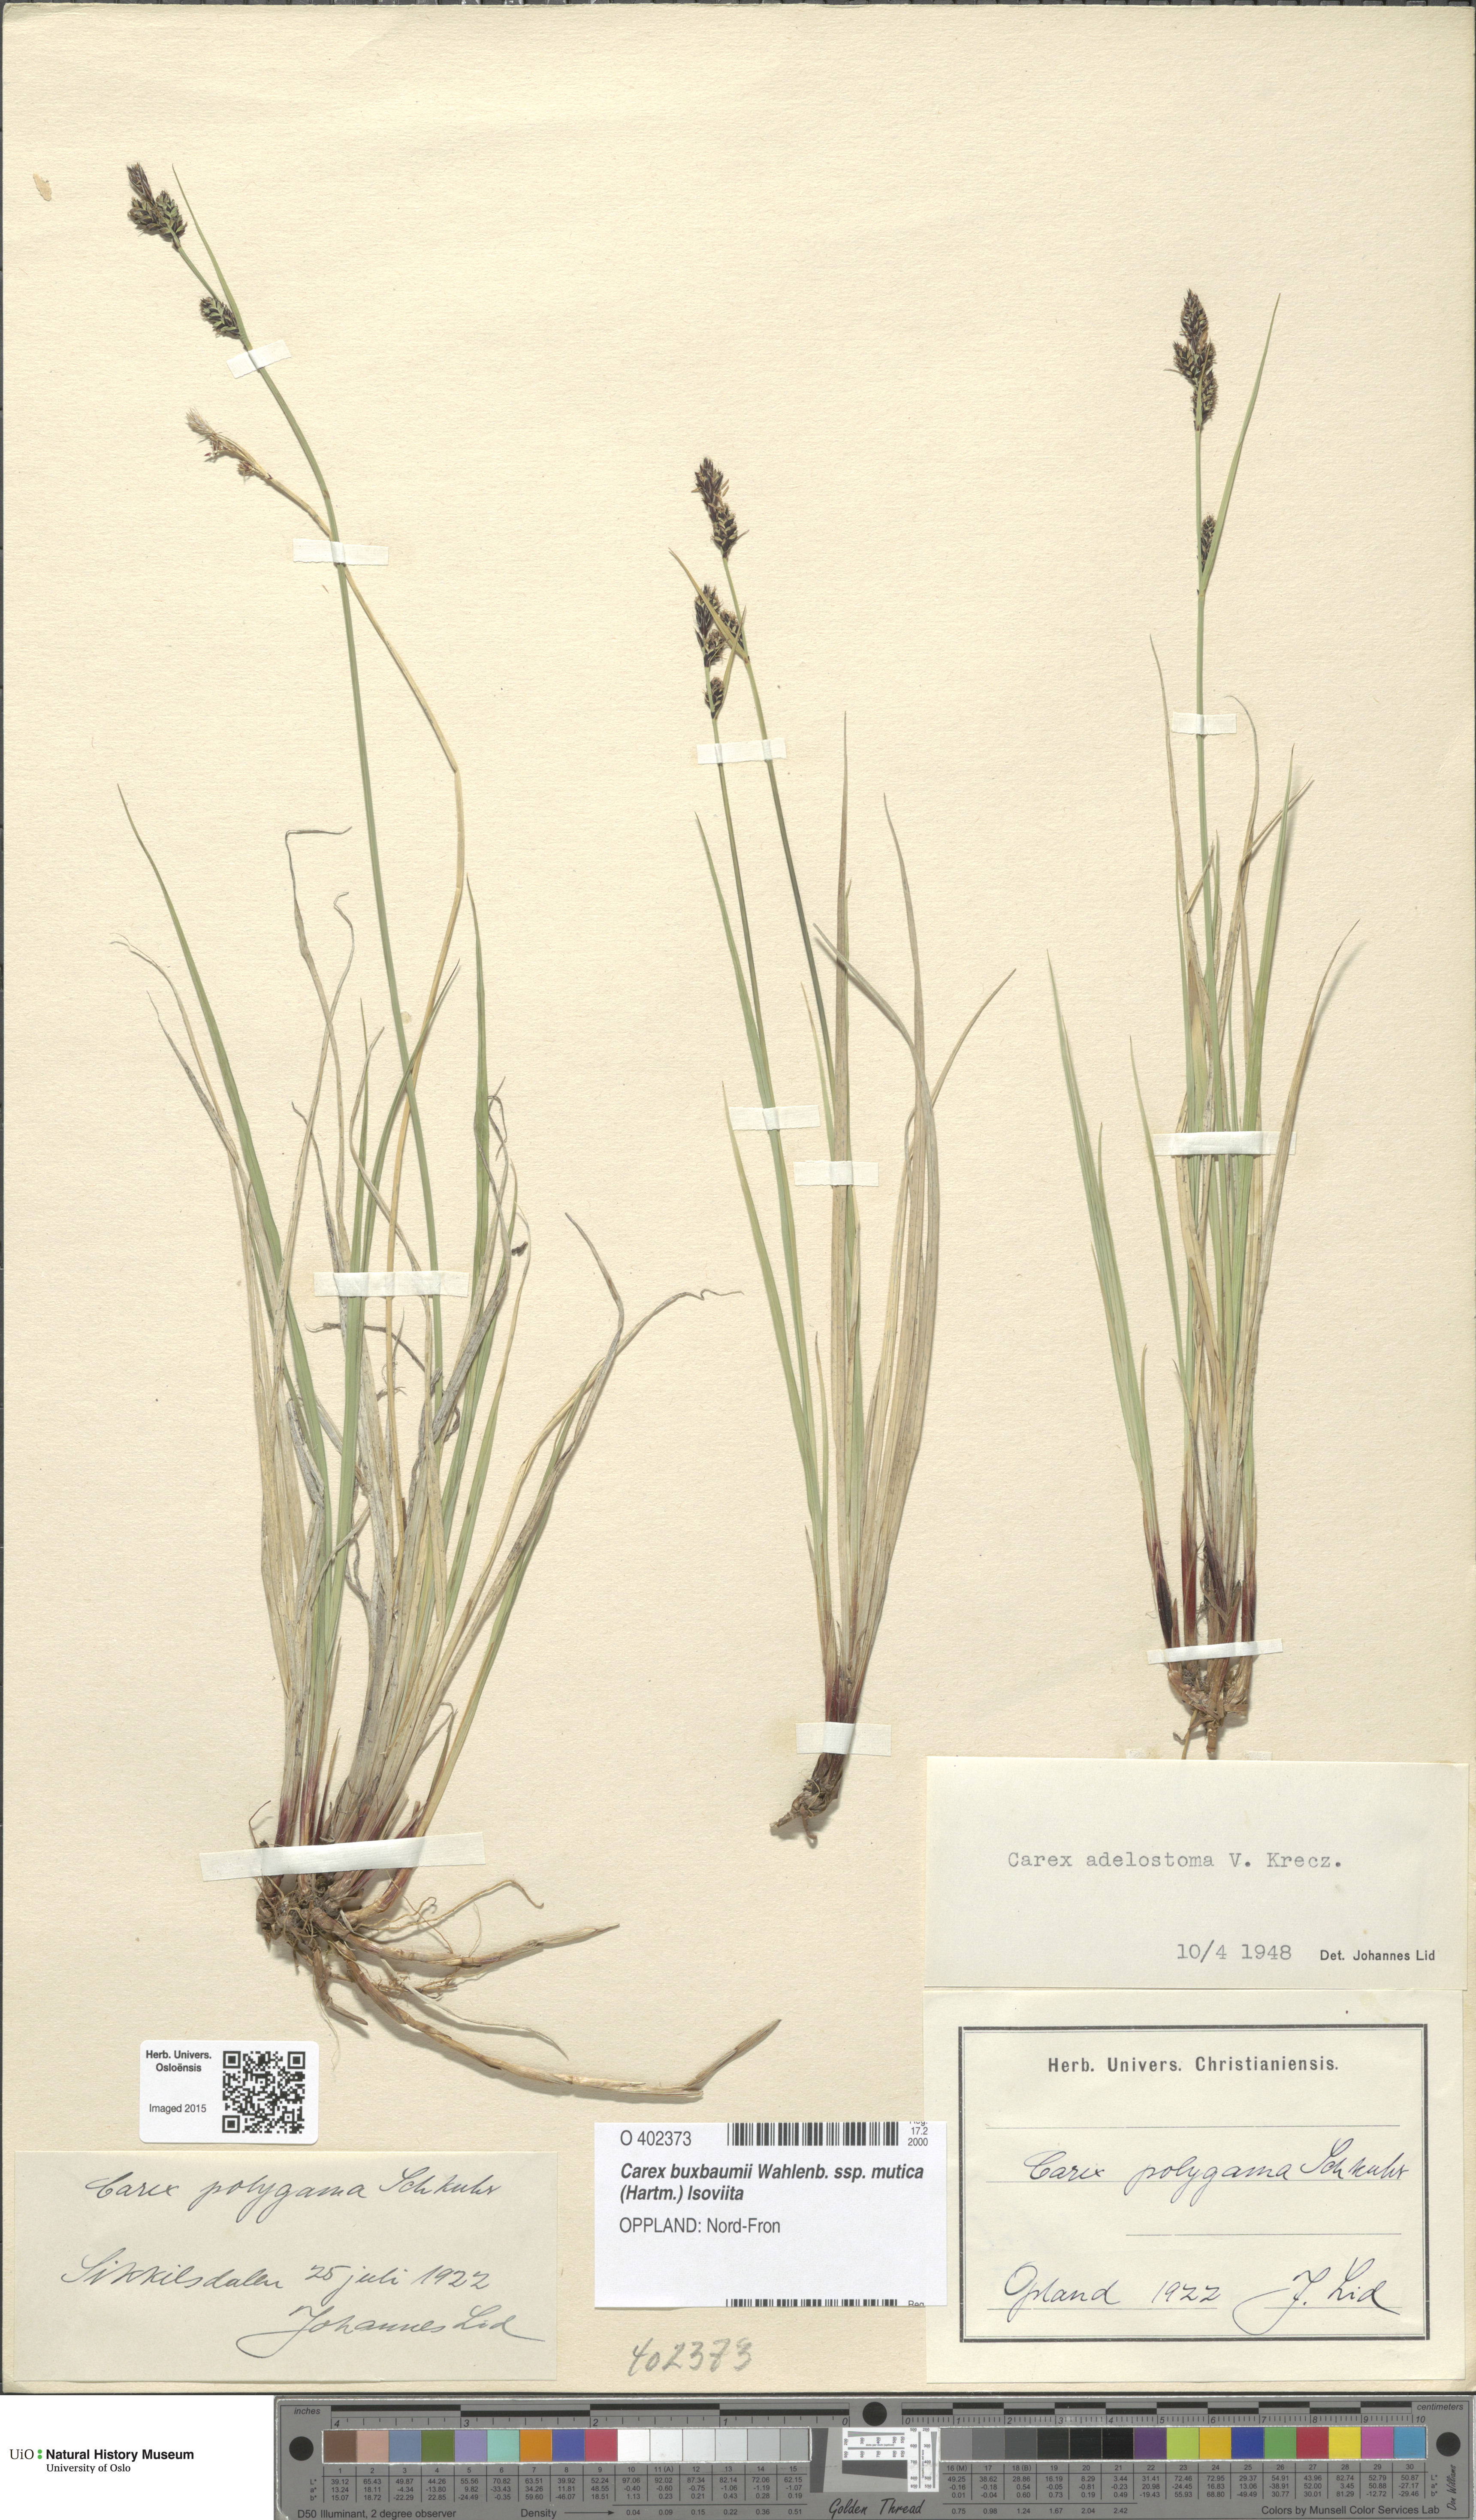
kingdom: Plantae
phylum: Tracheophyta
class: Liliopsida
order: Poales
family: Cyperaceae
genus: Carex
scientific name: Carex adelostoma
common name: Circumpolar sedge
